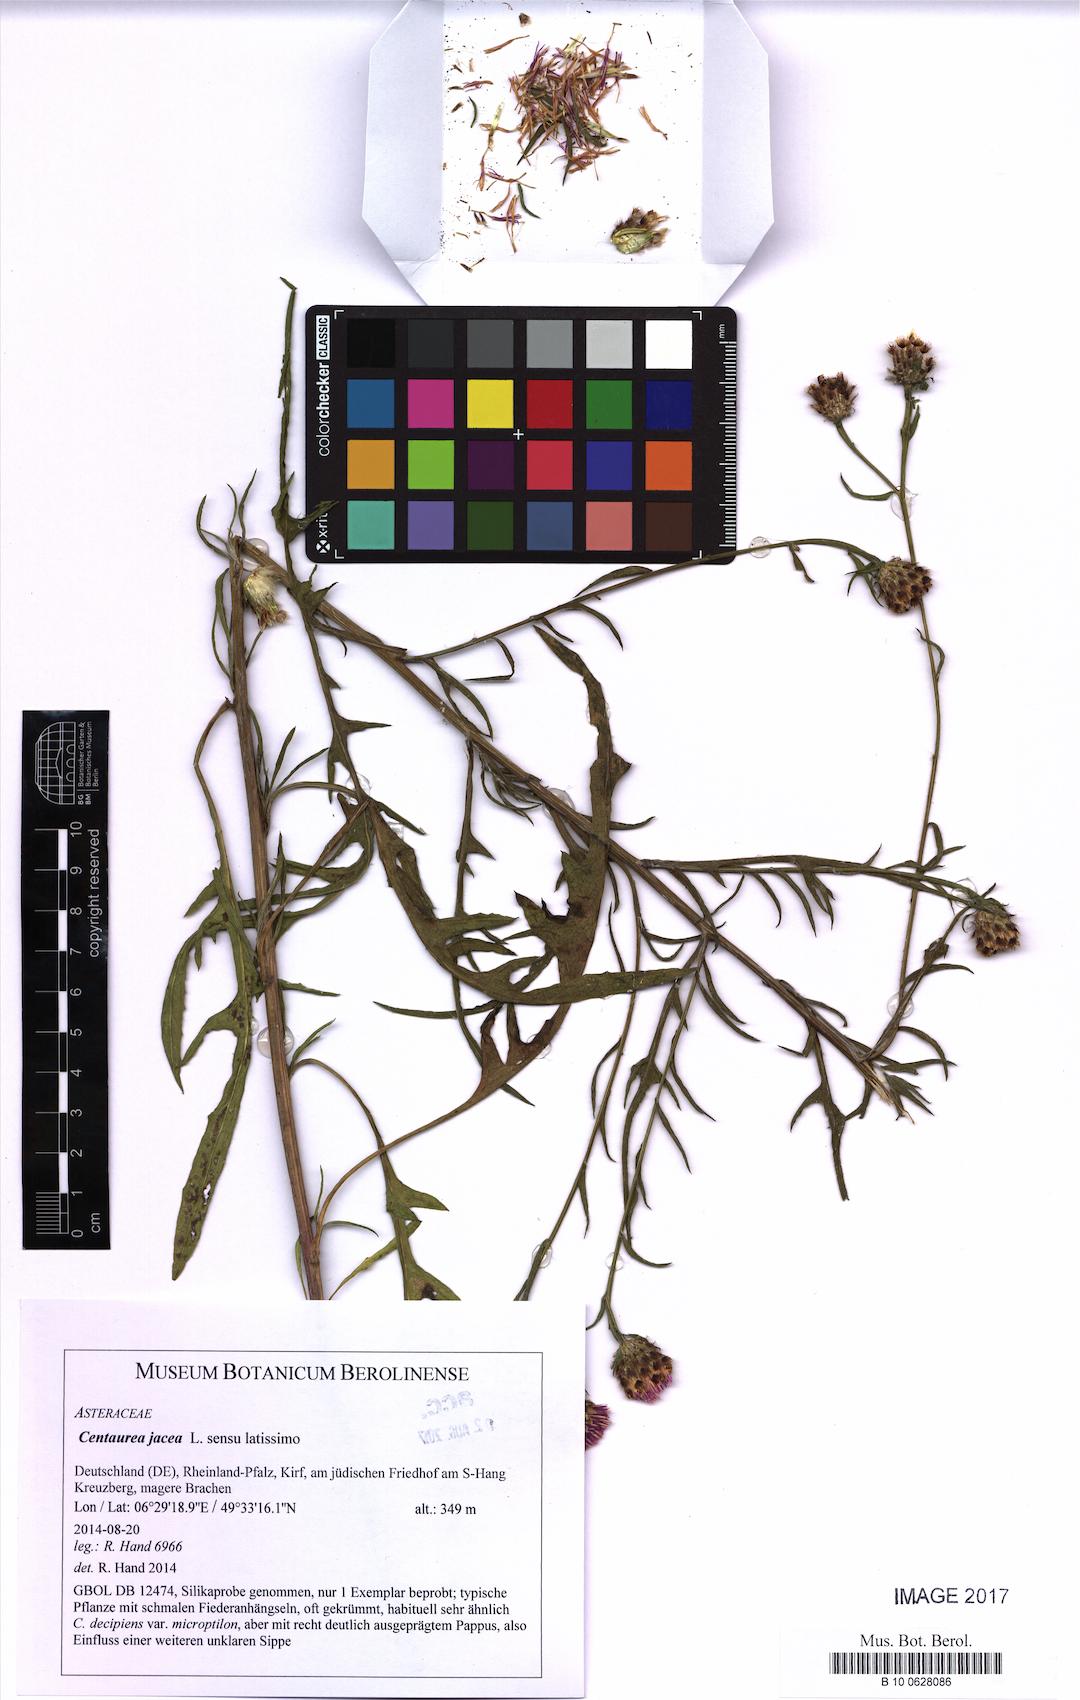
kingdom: Plantae
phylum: Tracheophyta
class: Magnoliopsida
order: Asterales
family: Asteraceae
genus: Centaurea
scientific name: Centaurea jacea
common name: Brown knapweed
